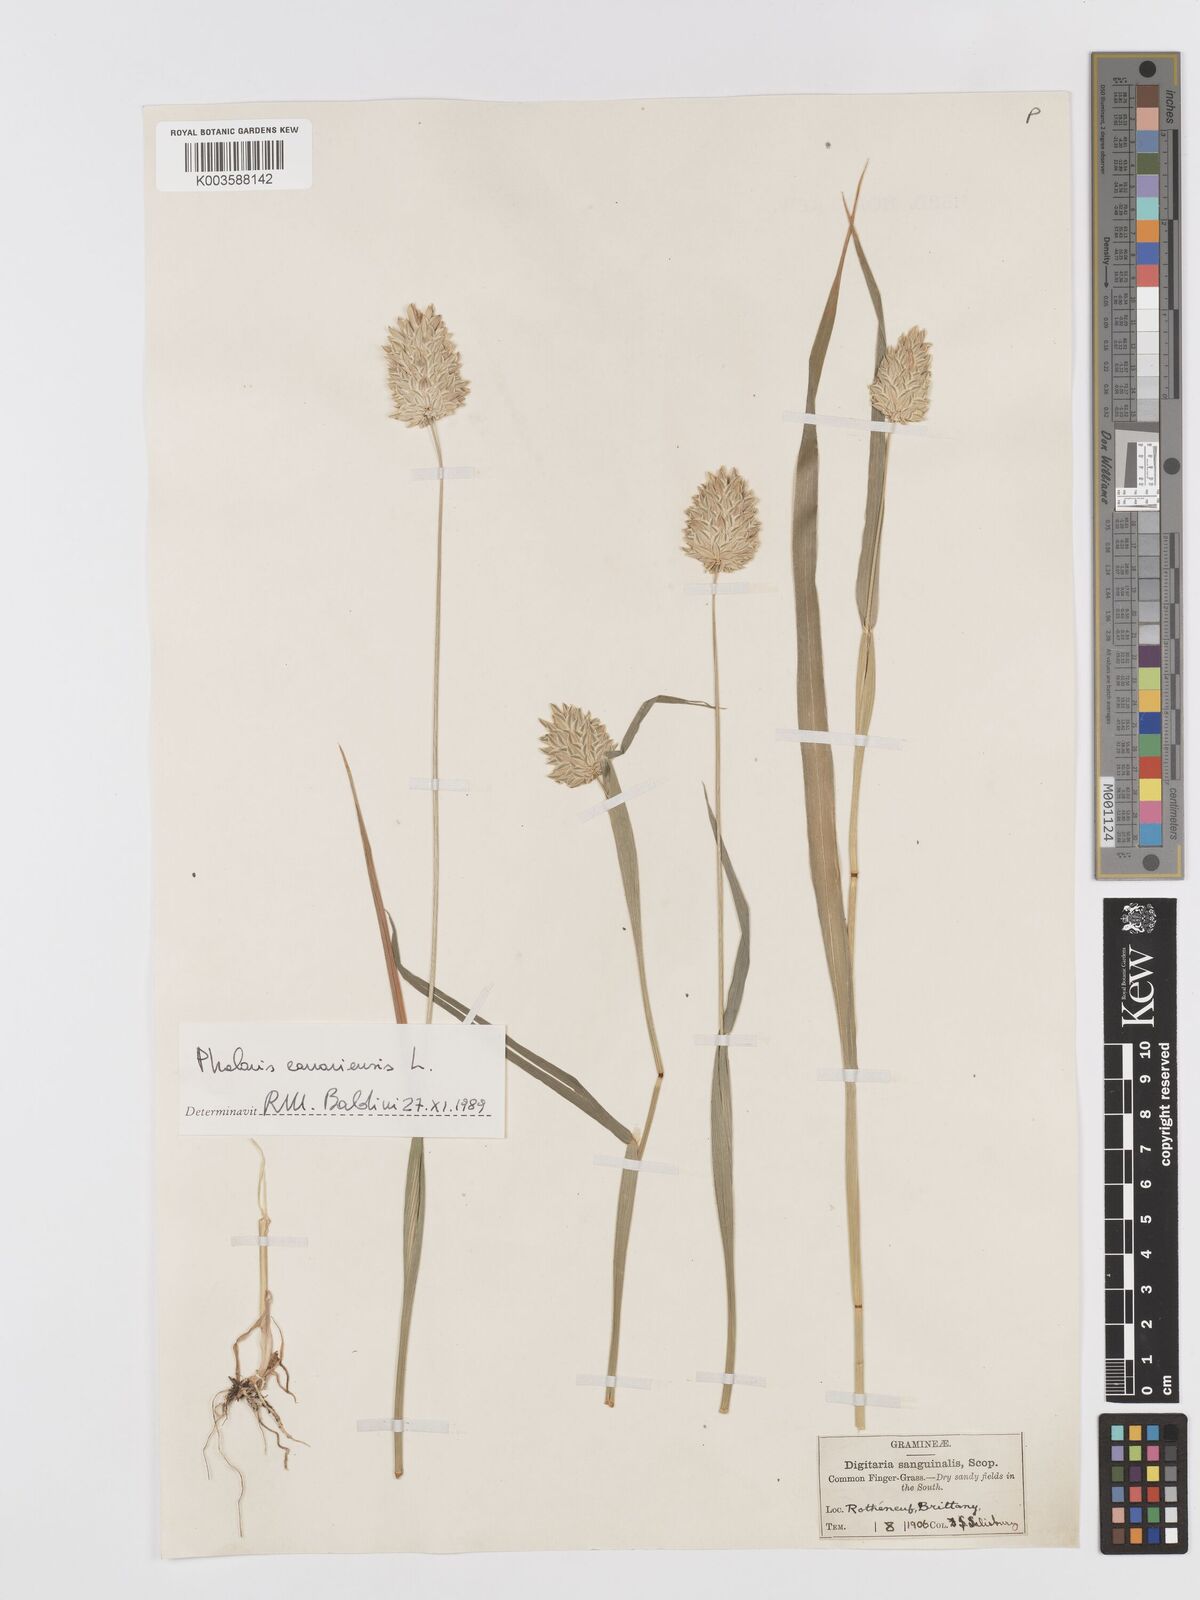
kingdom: Plantae
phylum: Tracheophyta
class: Liliopsida
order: Poales
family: Poaceae
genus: Phalaris
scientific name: Phalaris canariensis
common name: Annual canarygrass
